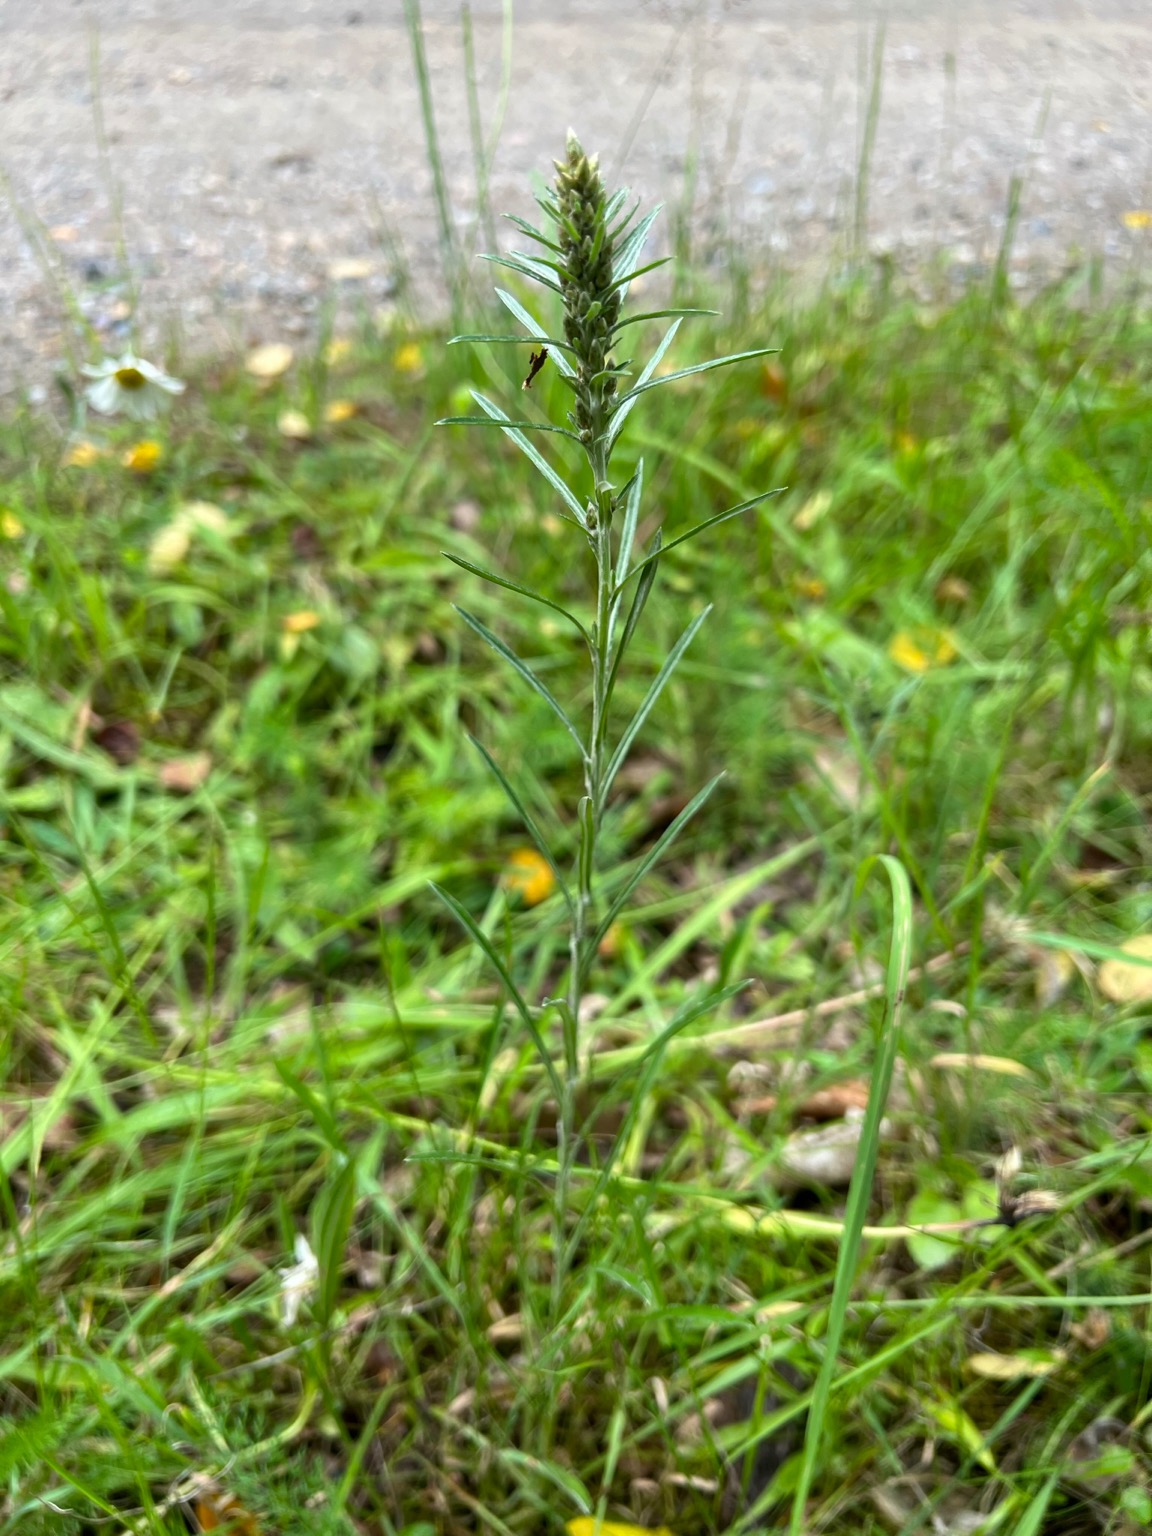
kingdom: Plantae
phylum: Tracheophyta
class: Magnoliopsida
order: Asterales
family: Asteraceae
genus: Omalotheca
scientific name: Omalotheca sylvatica
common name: Rank evighedsblomst
